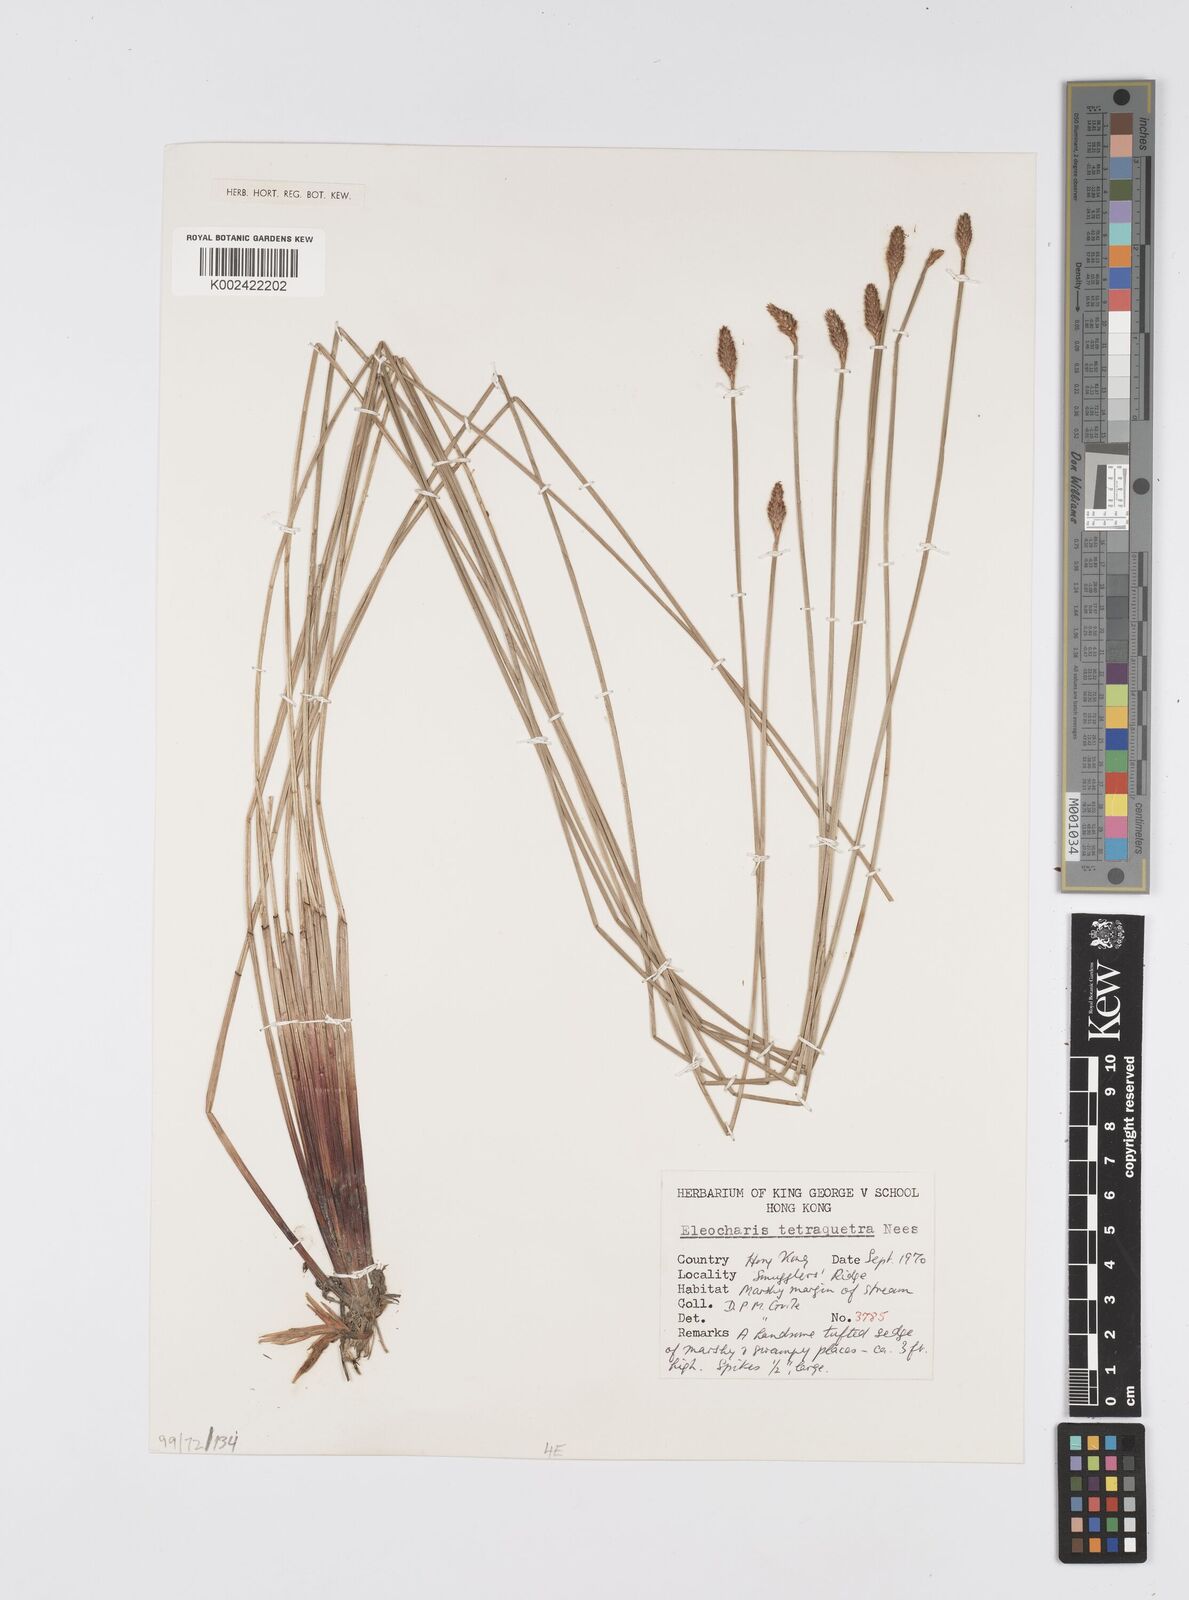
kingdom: Plantae
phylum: Tracheophyta
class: Liliopsida
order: Poales
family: Cyperaceae
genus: Eleocharis
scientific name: Eleocharis tetraquetra
